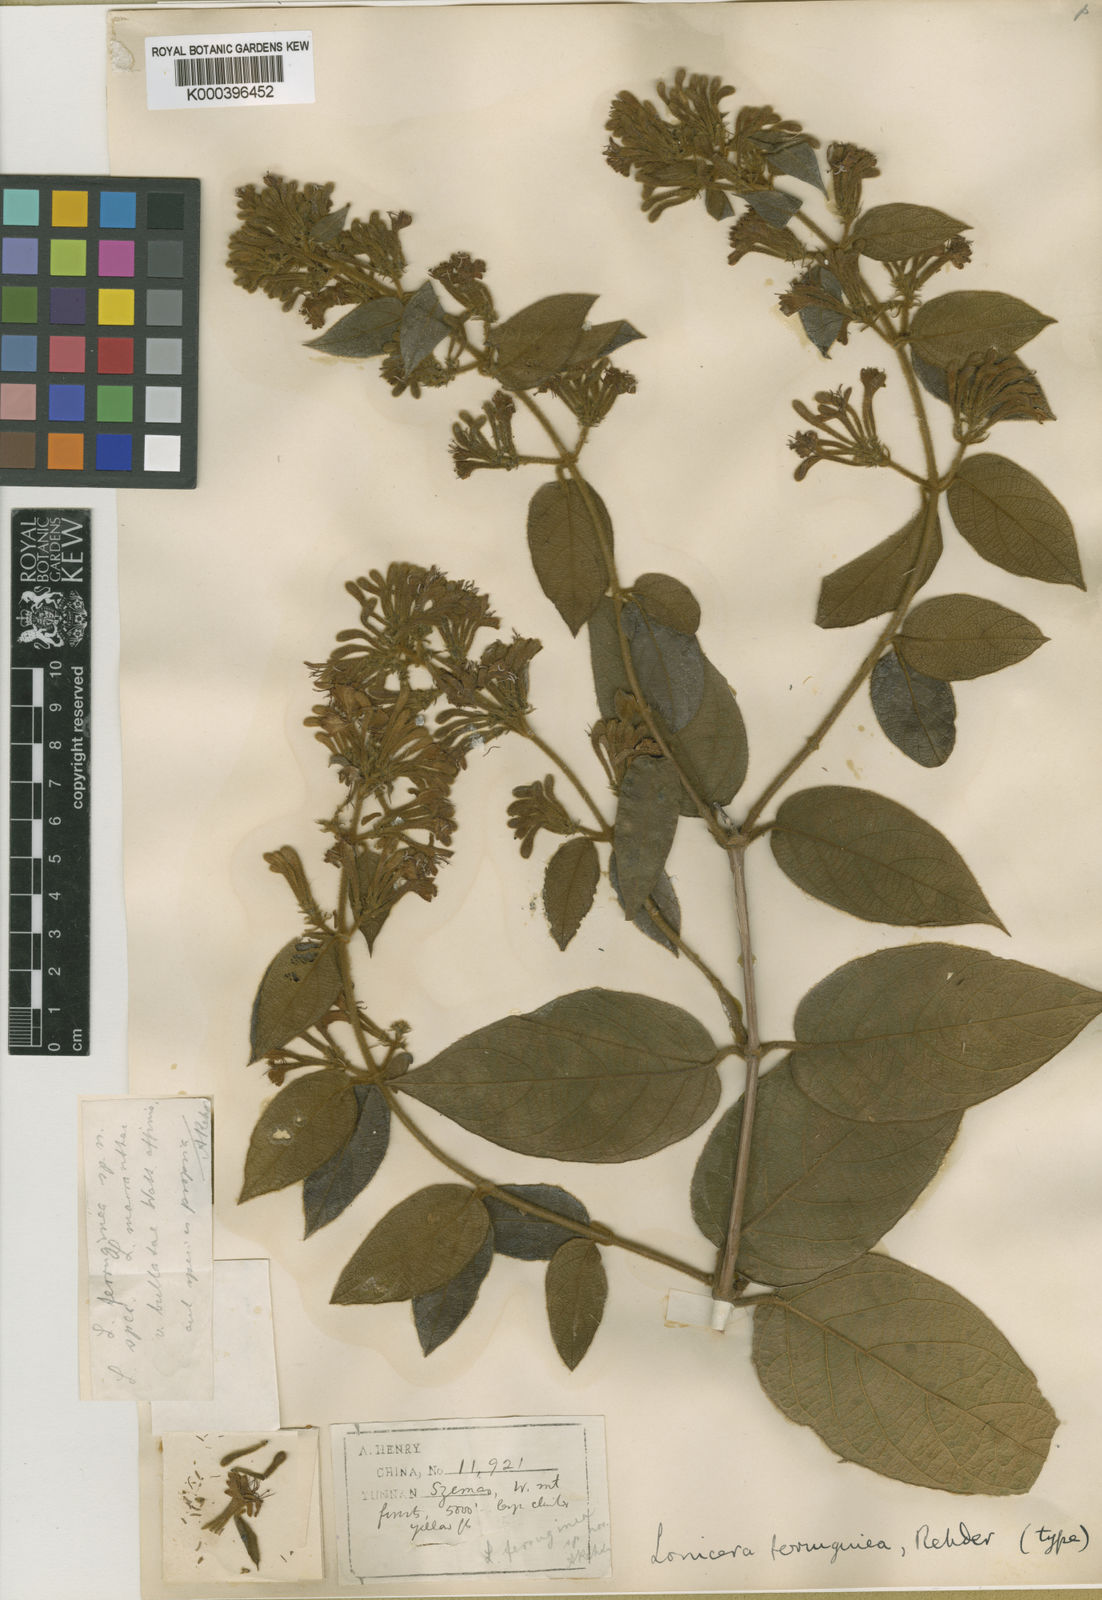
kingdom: Plantae
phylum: Tracheophyta
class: Magnoliopsida
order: Dipsacales
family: Caprifoliaceae
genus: Lonicera
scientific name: Lonicera ferruginea
